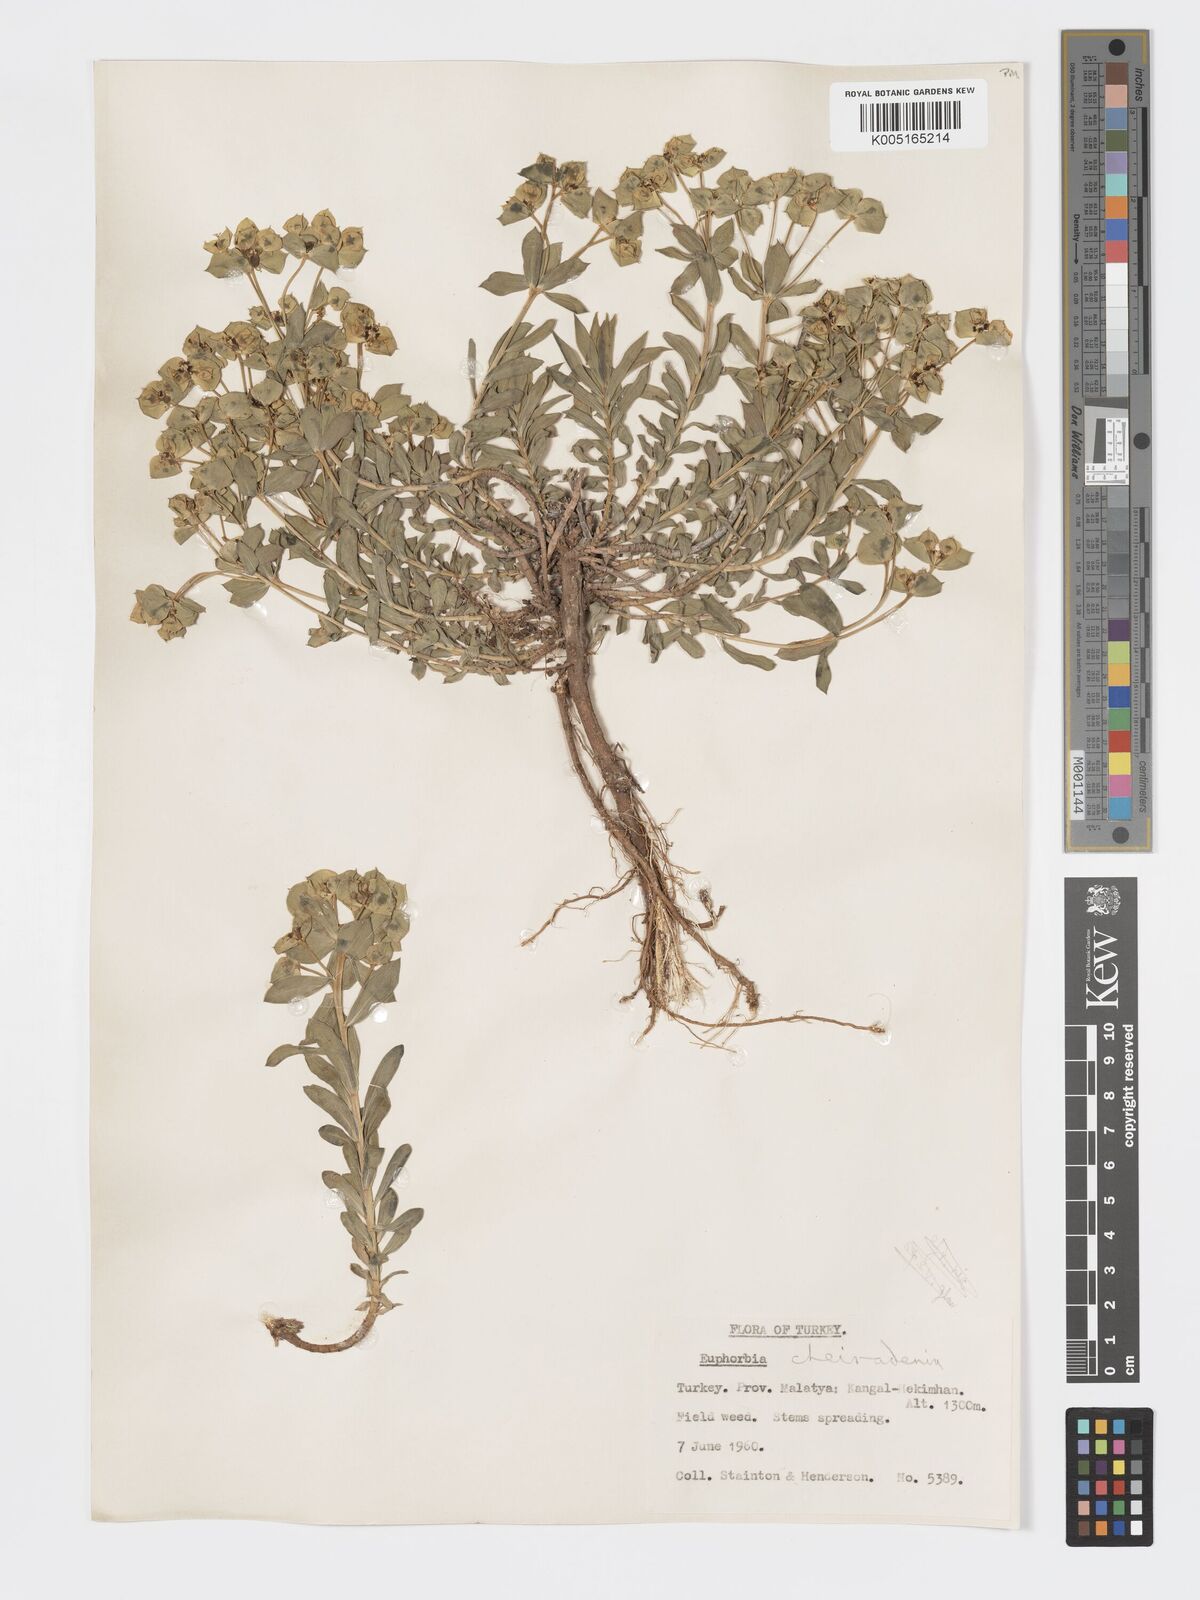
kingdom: Plantae
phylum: Tracheophyta
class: Magnoliopsida
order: Malpighiales
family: Euphorbiaceae
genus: Euphorbia
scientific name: Euphorbia cheiradenia
